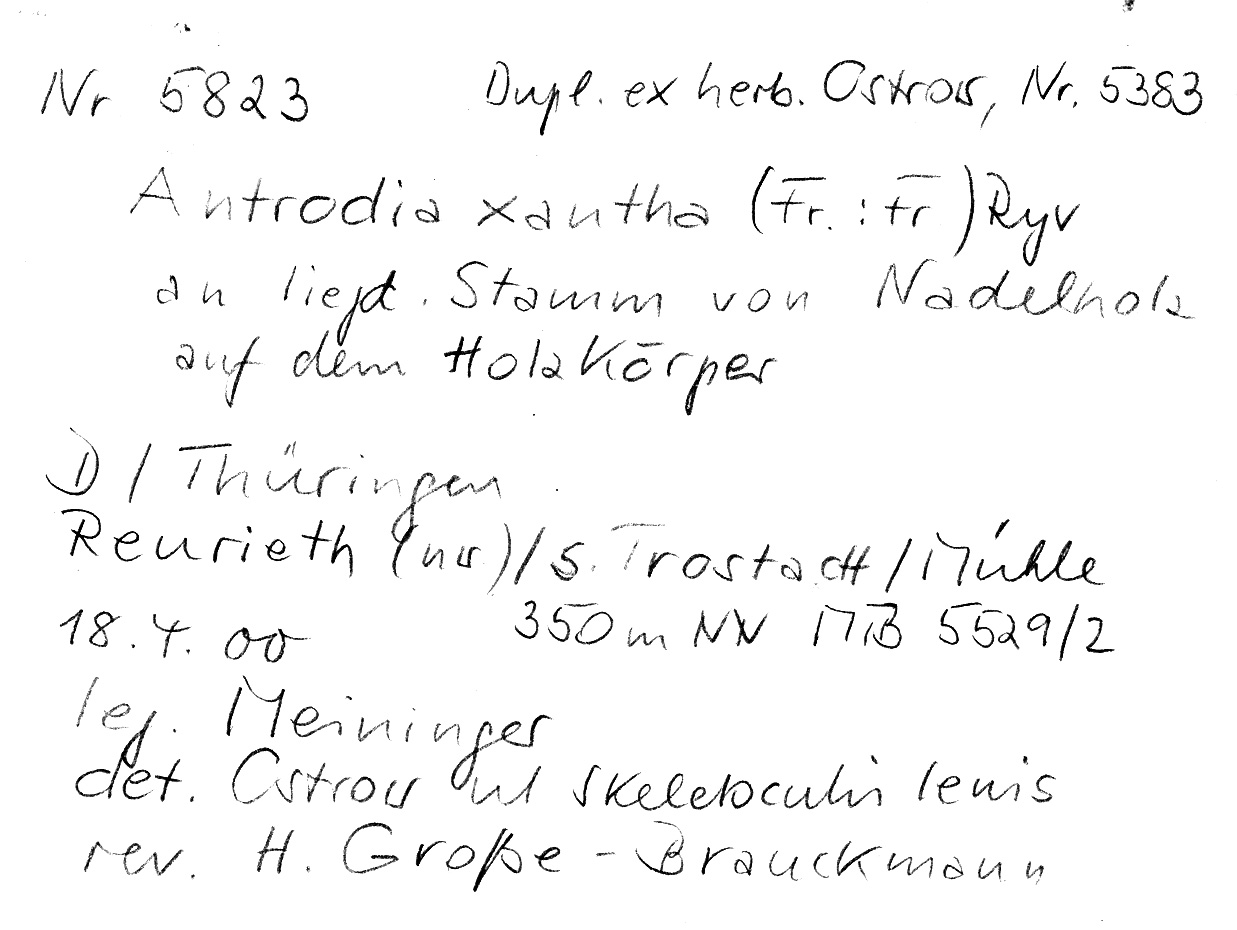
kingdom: Fungi
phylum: Basidiomycota
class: Agaricomycetes
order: Polyporales
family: Fomitopsidaceae
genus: Daedalea
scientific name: Daedalea xantha
